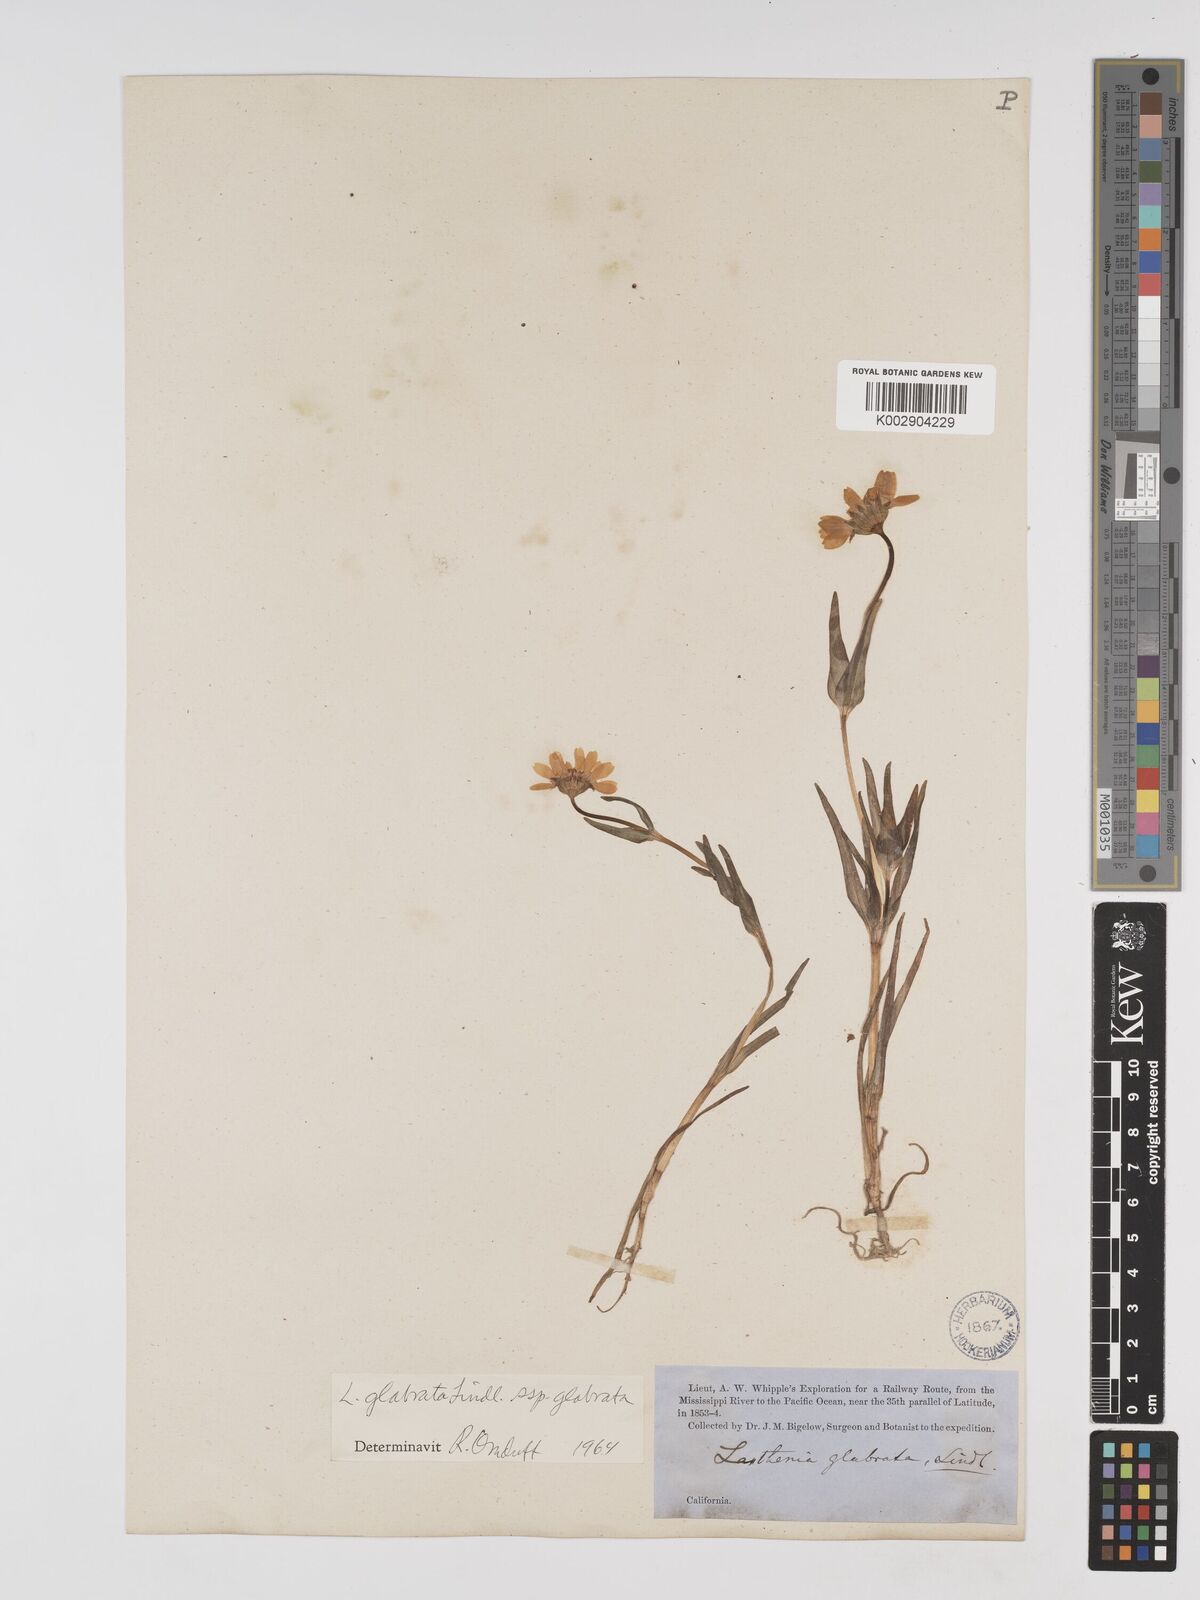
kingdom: Plantae
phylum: Tracheophyta
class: Magnoliopsida
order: Asterales
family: Asteraceae
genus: Lasthenia
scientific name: Lasthenia glabrata
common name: Yellow-ray lasthenia
